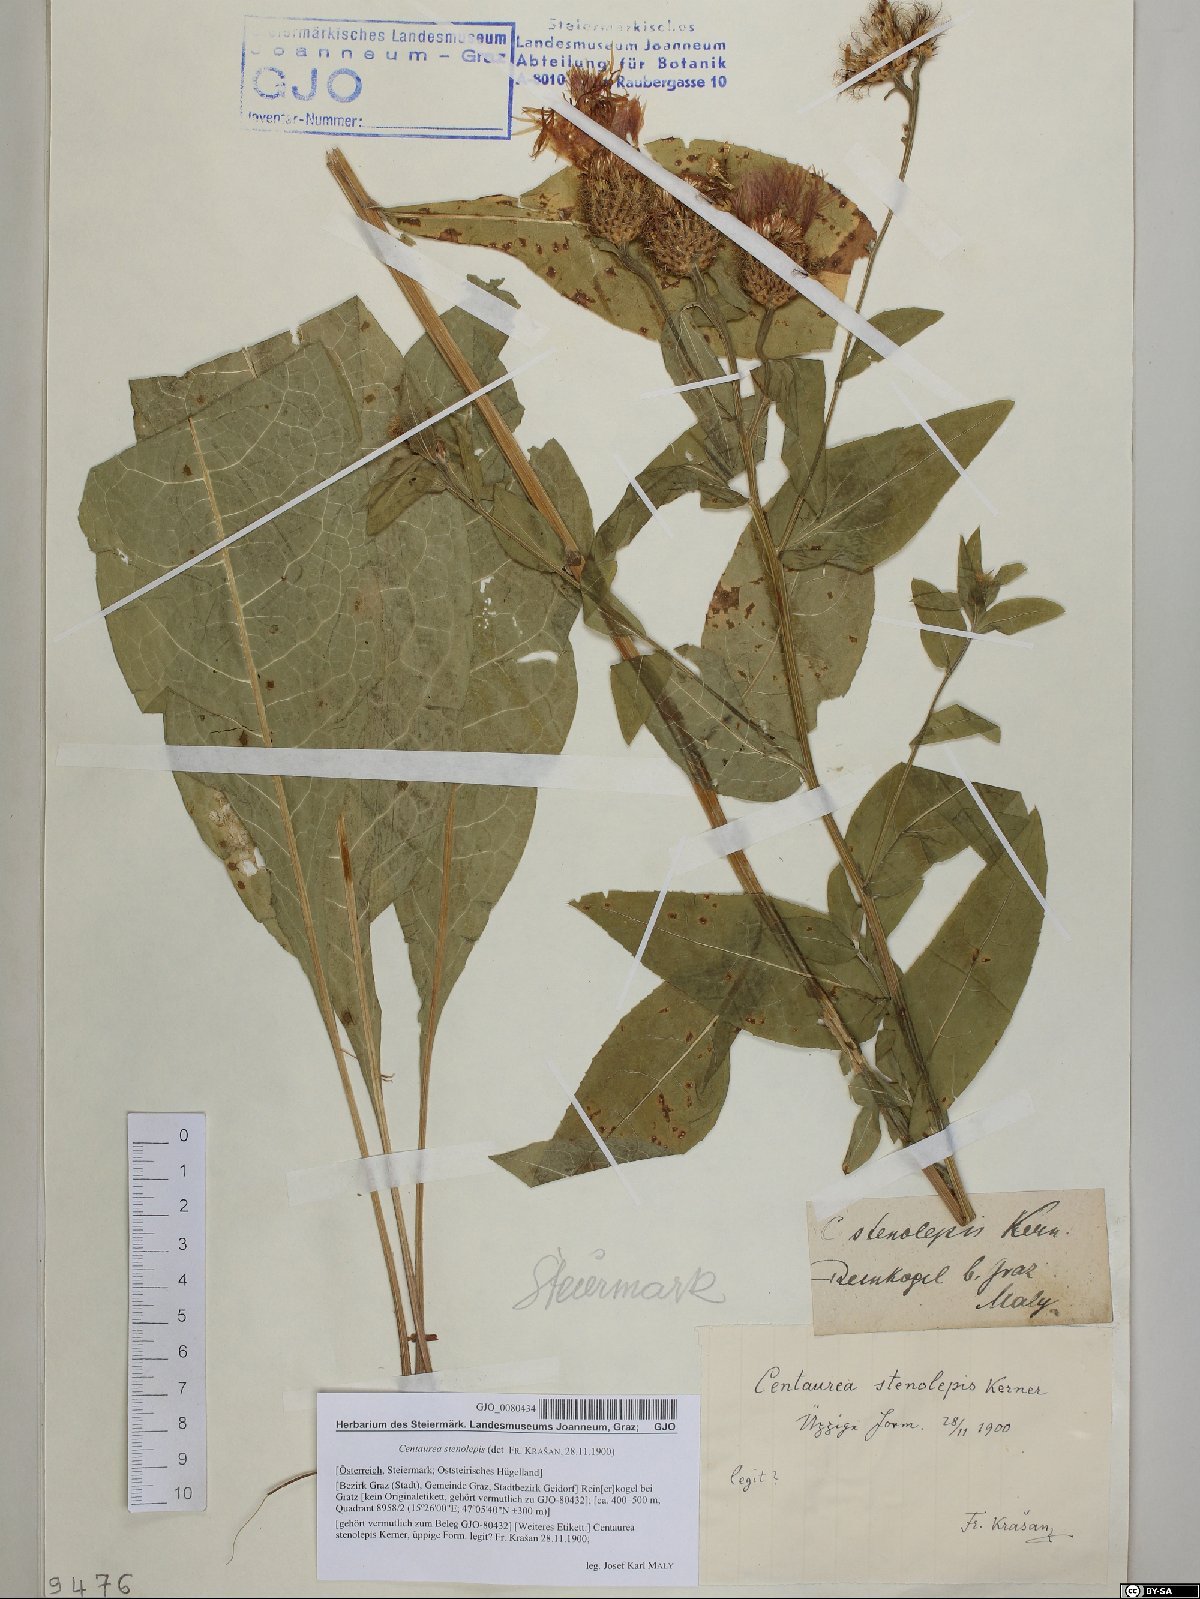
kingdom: Plantae
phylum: Tracheophyta
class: Magnoliopsida
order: Asterales
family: Asteraceae
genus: Centaurea
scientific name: Centaurea stenolepis
